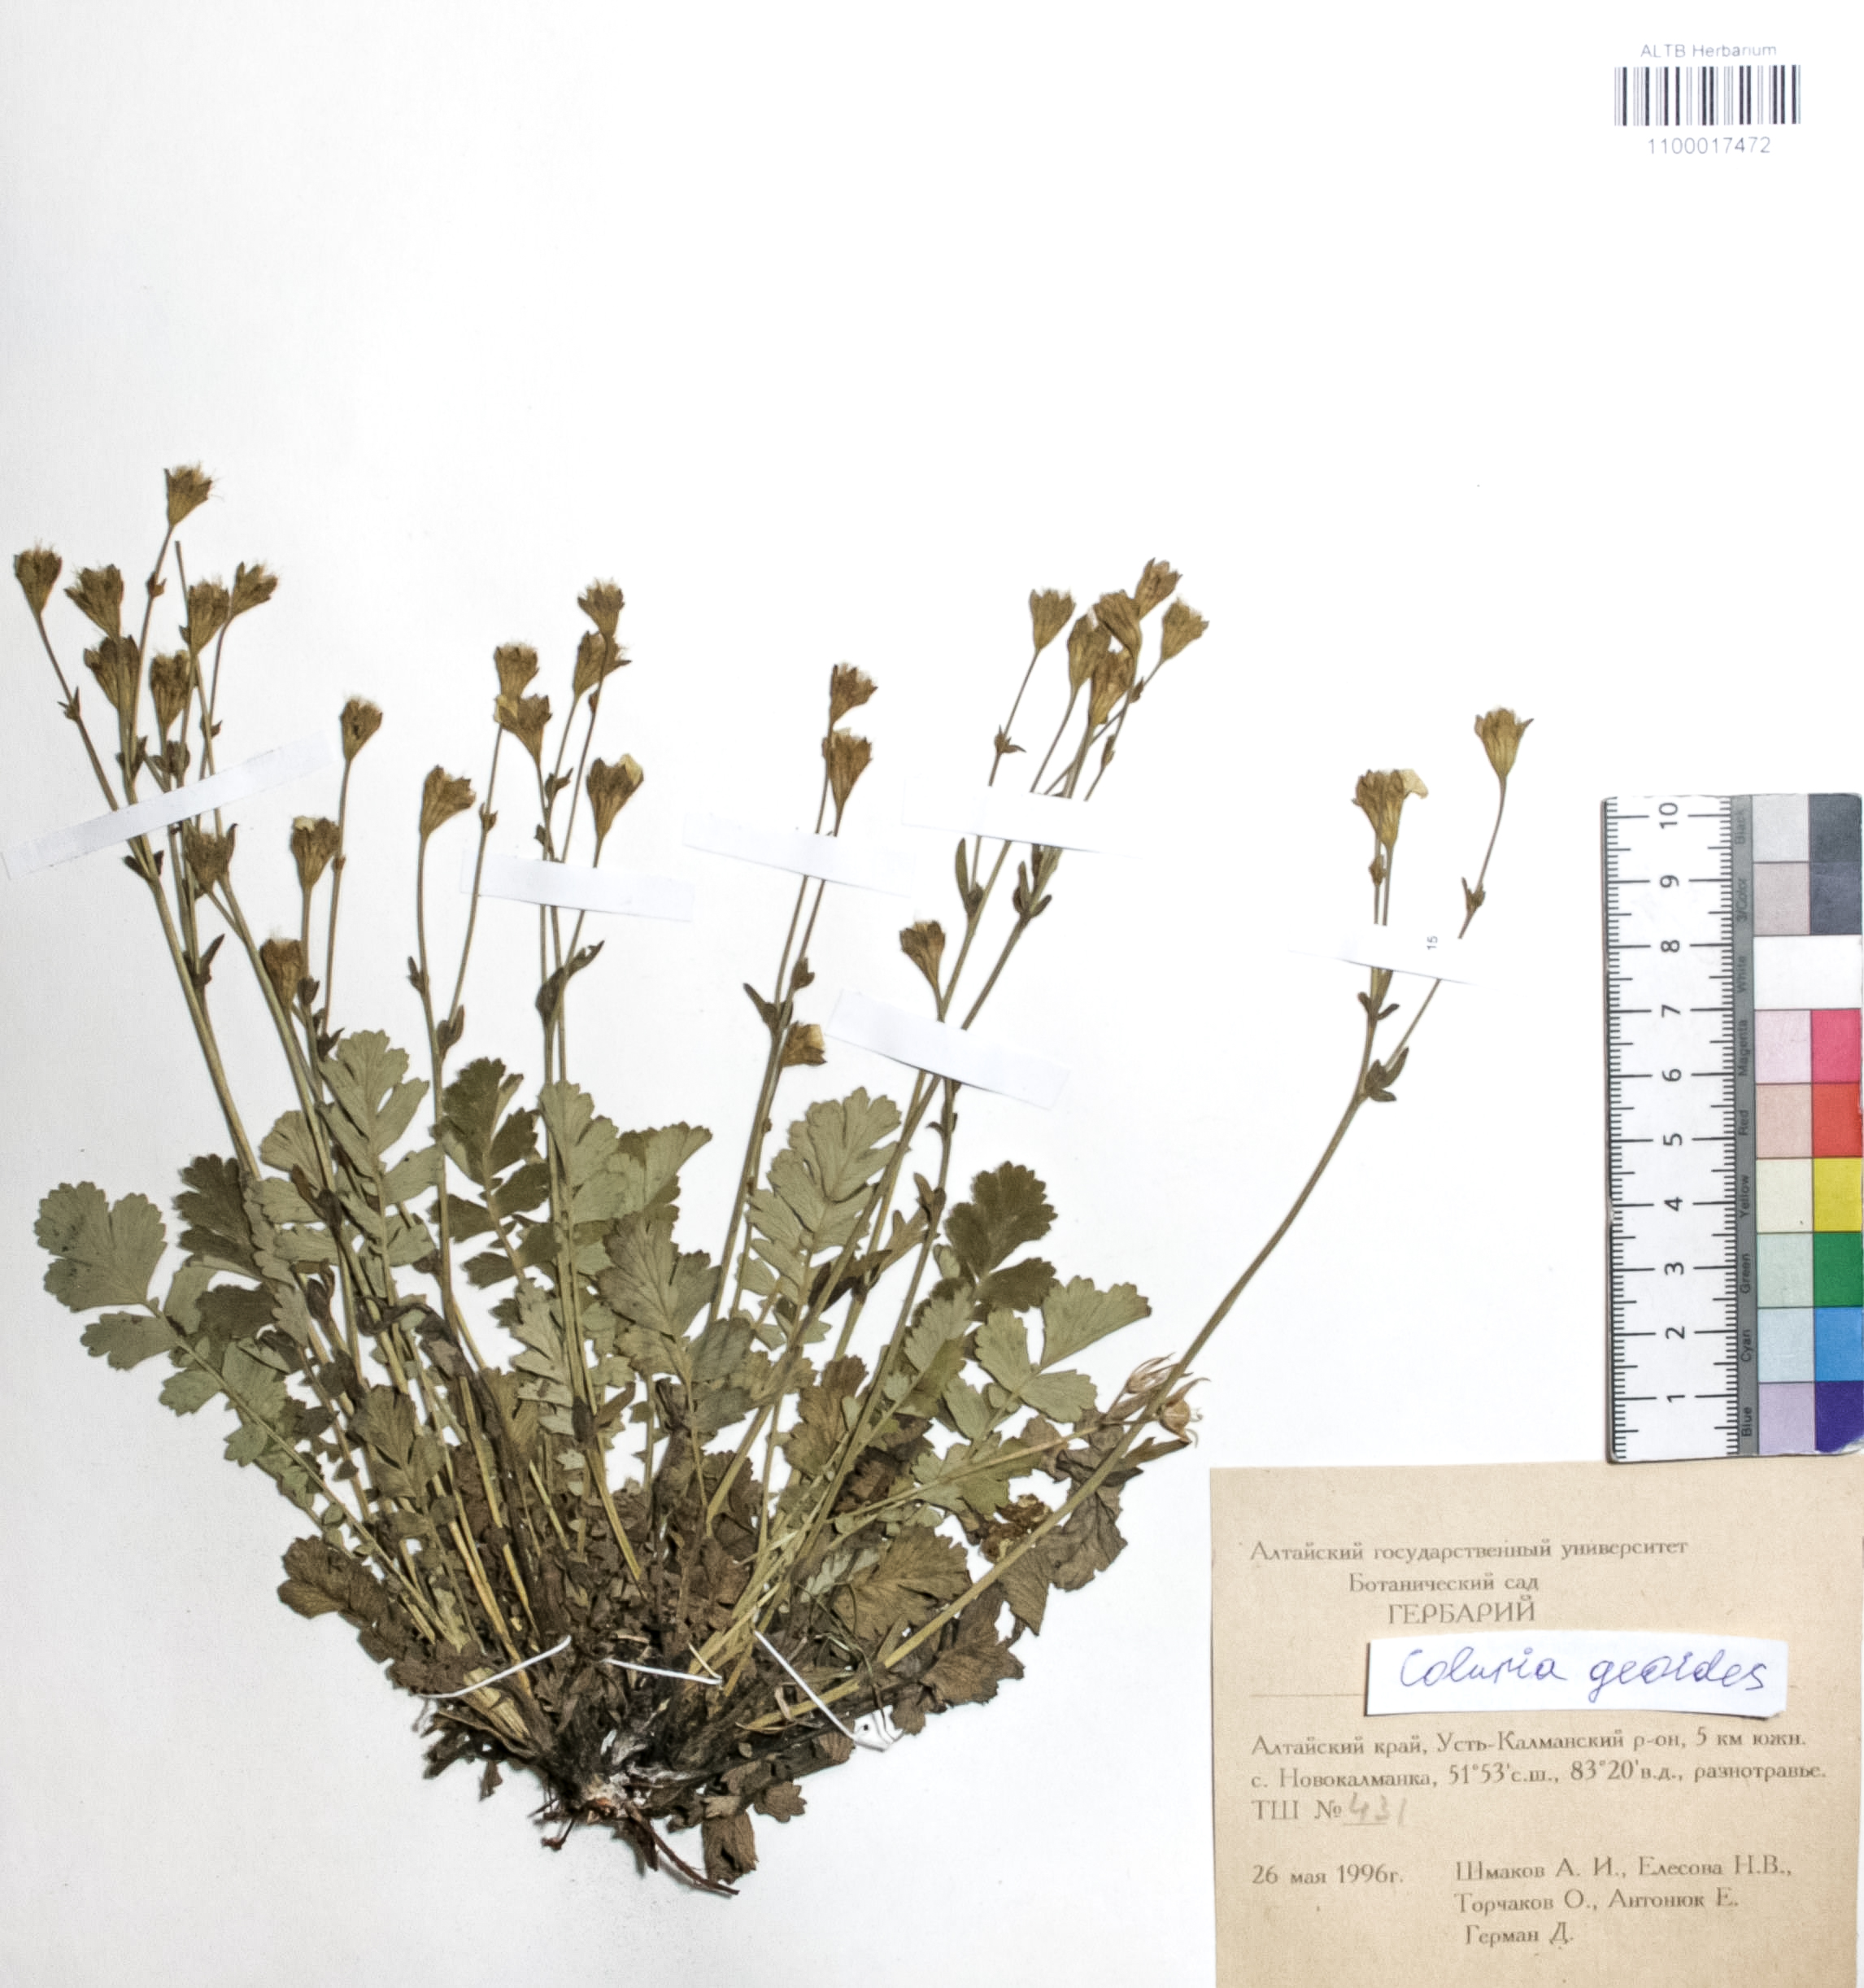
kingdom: Plantae
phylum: Tracheophyta
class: Magnoliopsida
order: Rosales
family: Rosaceae
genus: Geum
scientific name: Geum geoides
